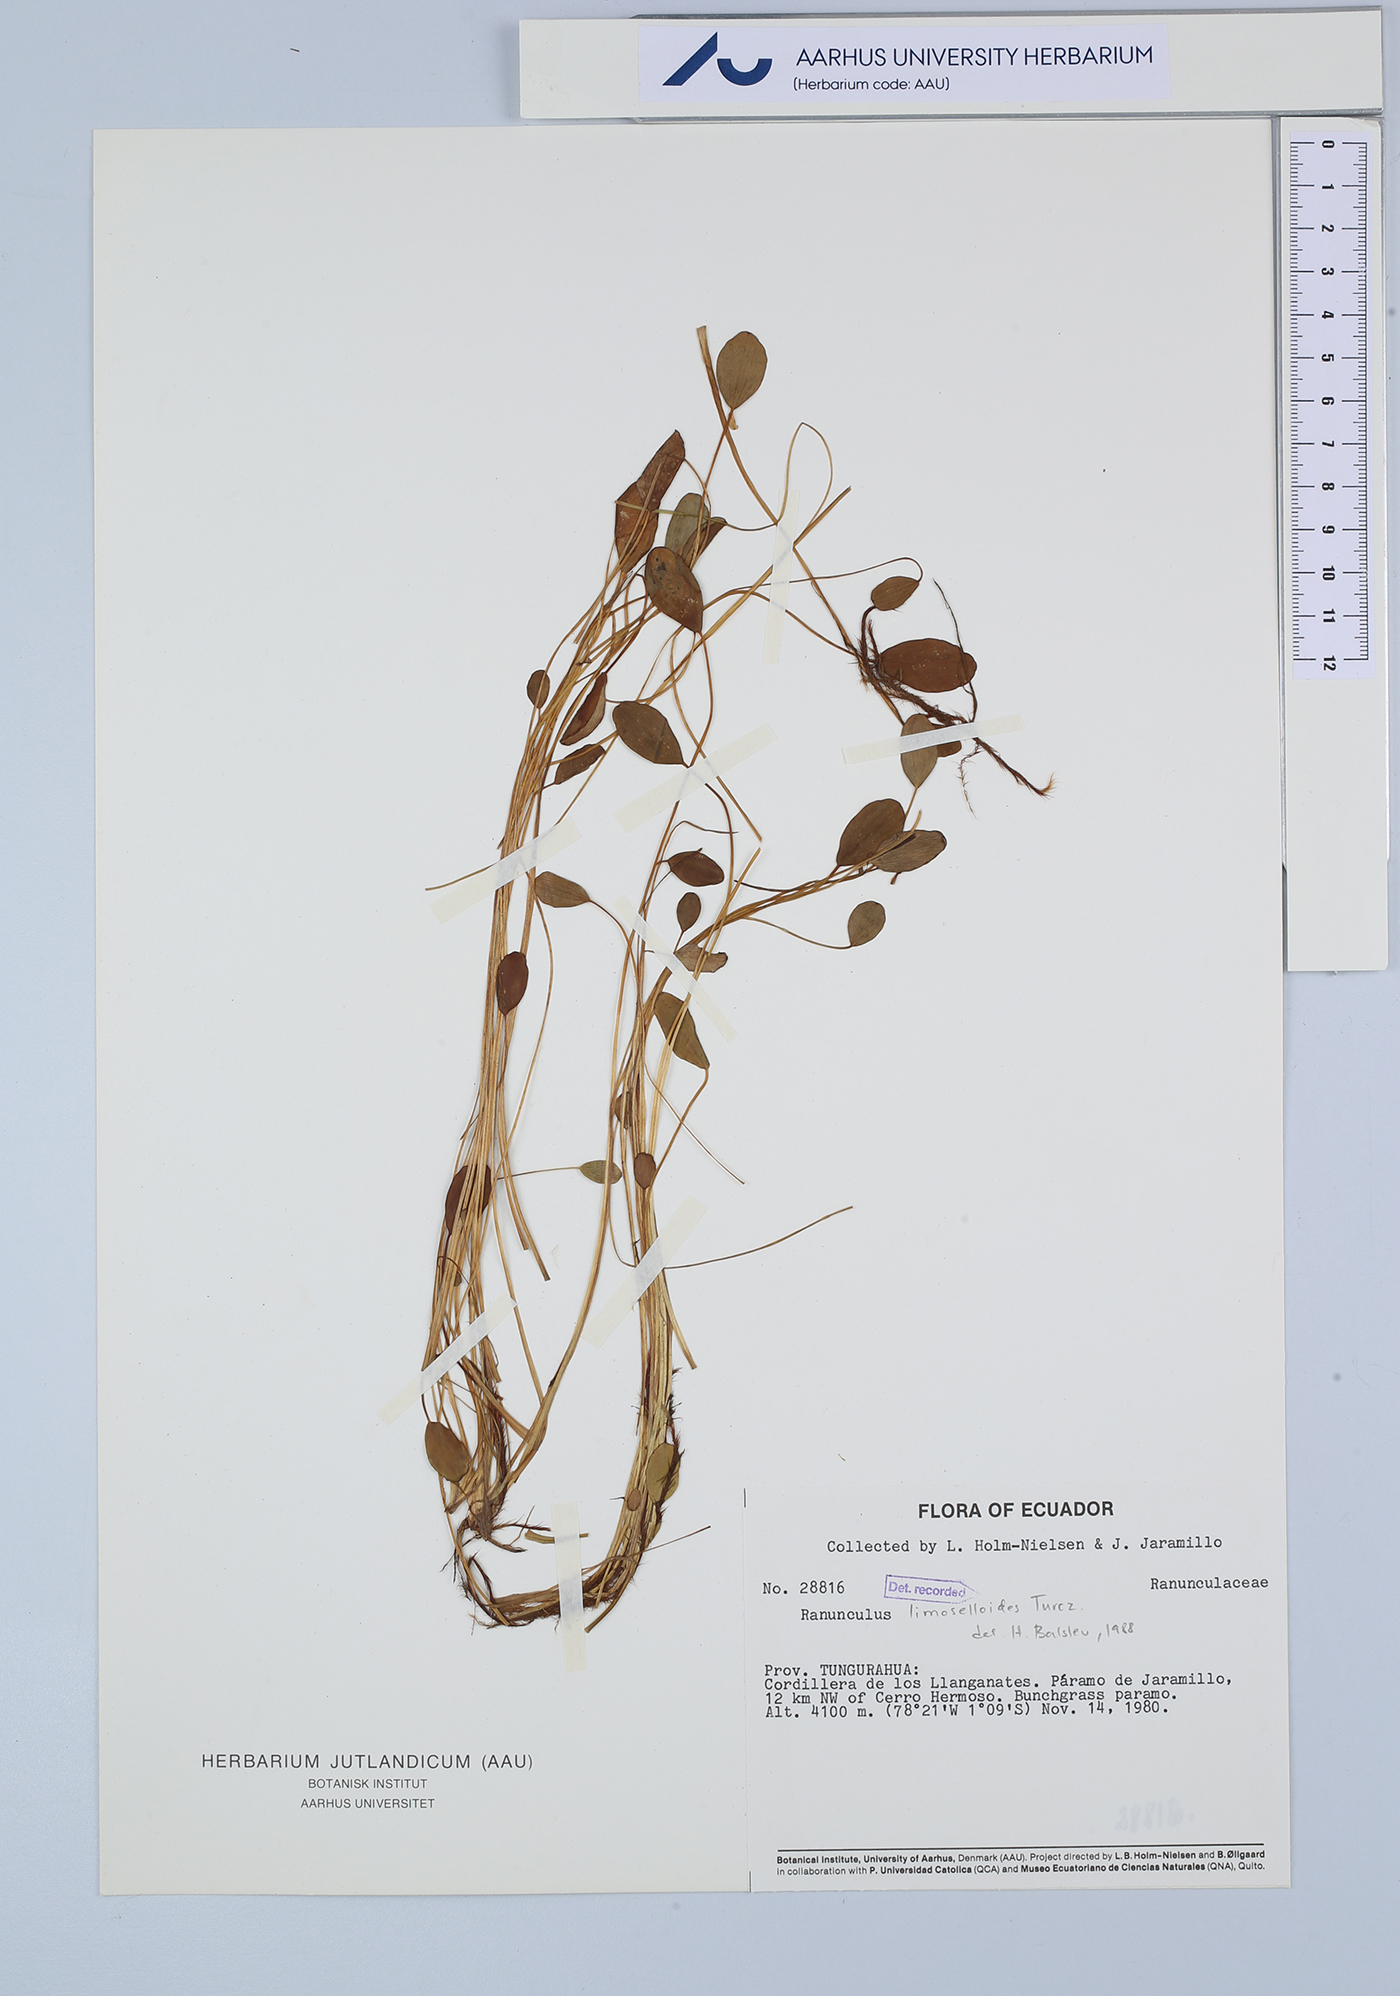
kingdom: Plantae
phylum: Tracheophyta
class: Magnoliopsida
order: Ranunculales
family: Ranunculaceae
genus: Ranunculus
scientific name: Ranunculus limoselloides
